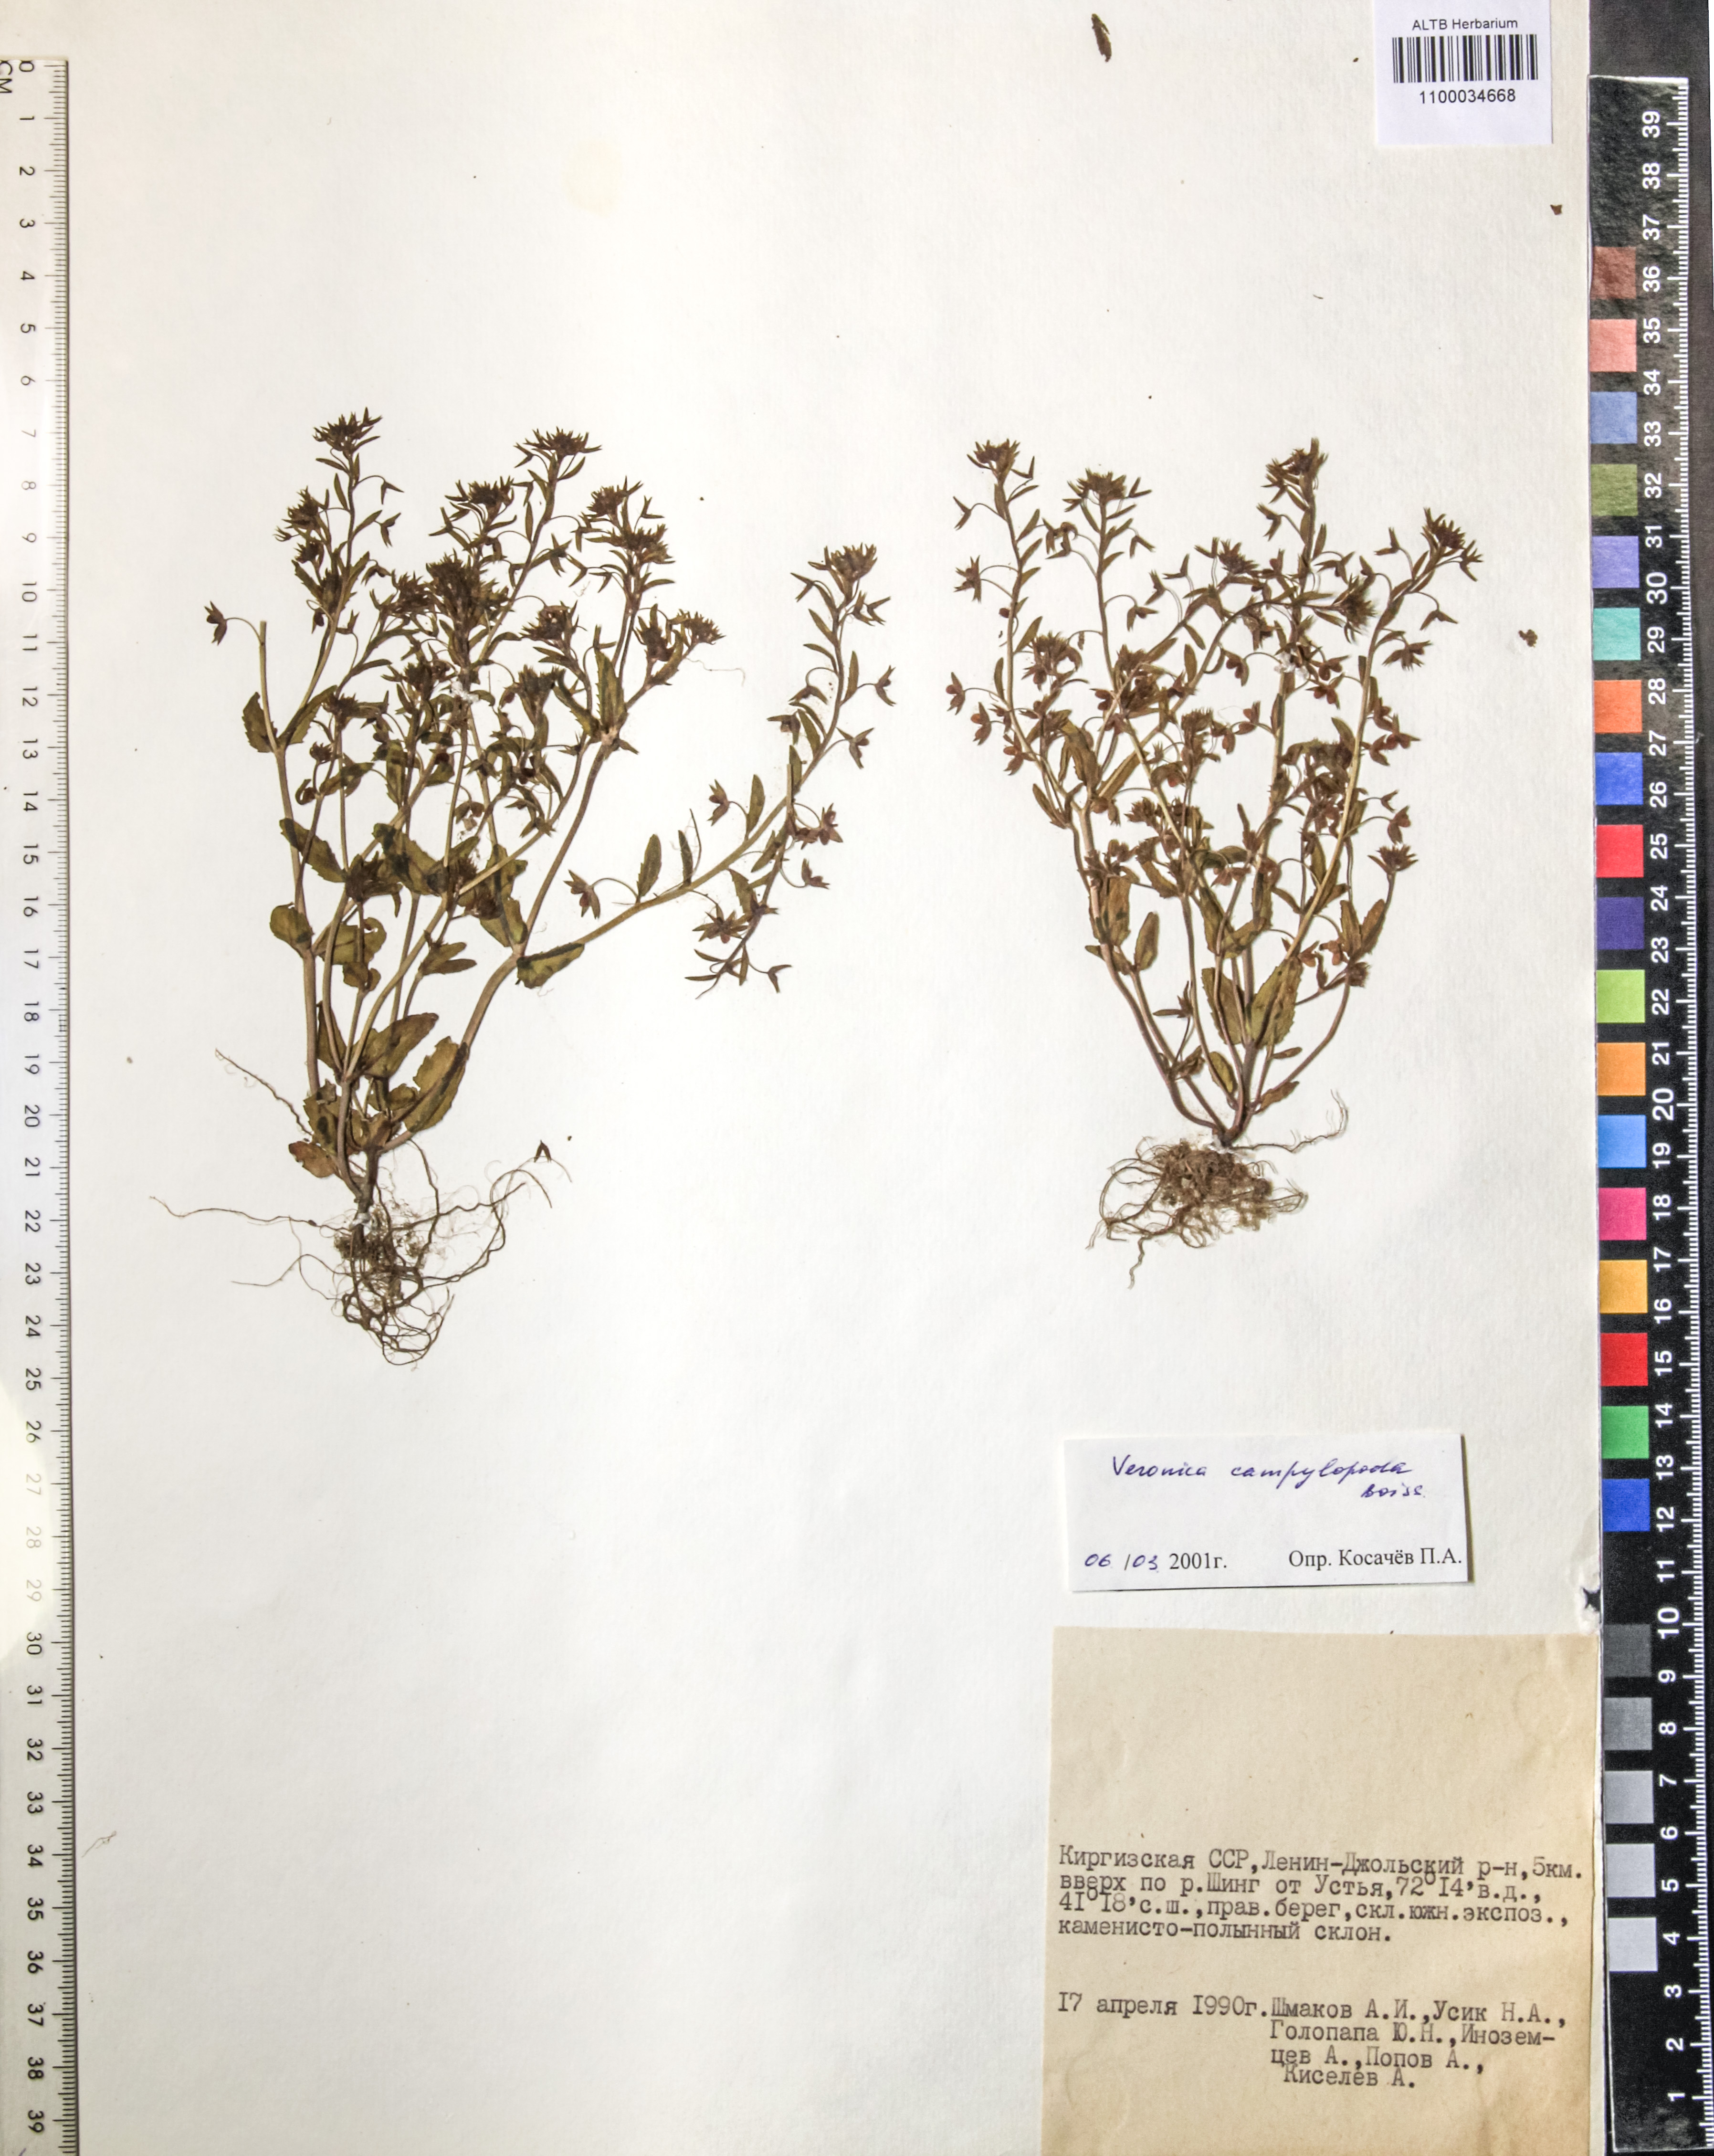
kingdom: Plantae
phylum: Tracheophyta
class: Magnoliopsida
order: Lamiales
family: Plantaginaceae
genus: Veronica
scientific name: Veronica campylopoda
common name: Bent-foot speedwell
